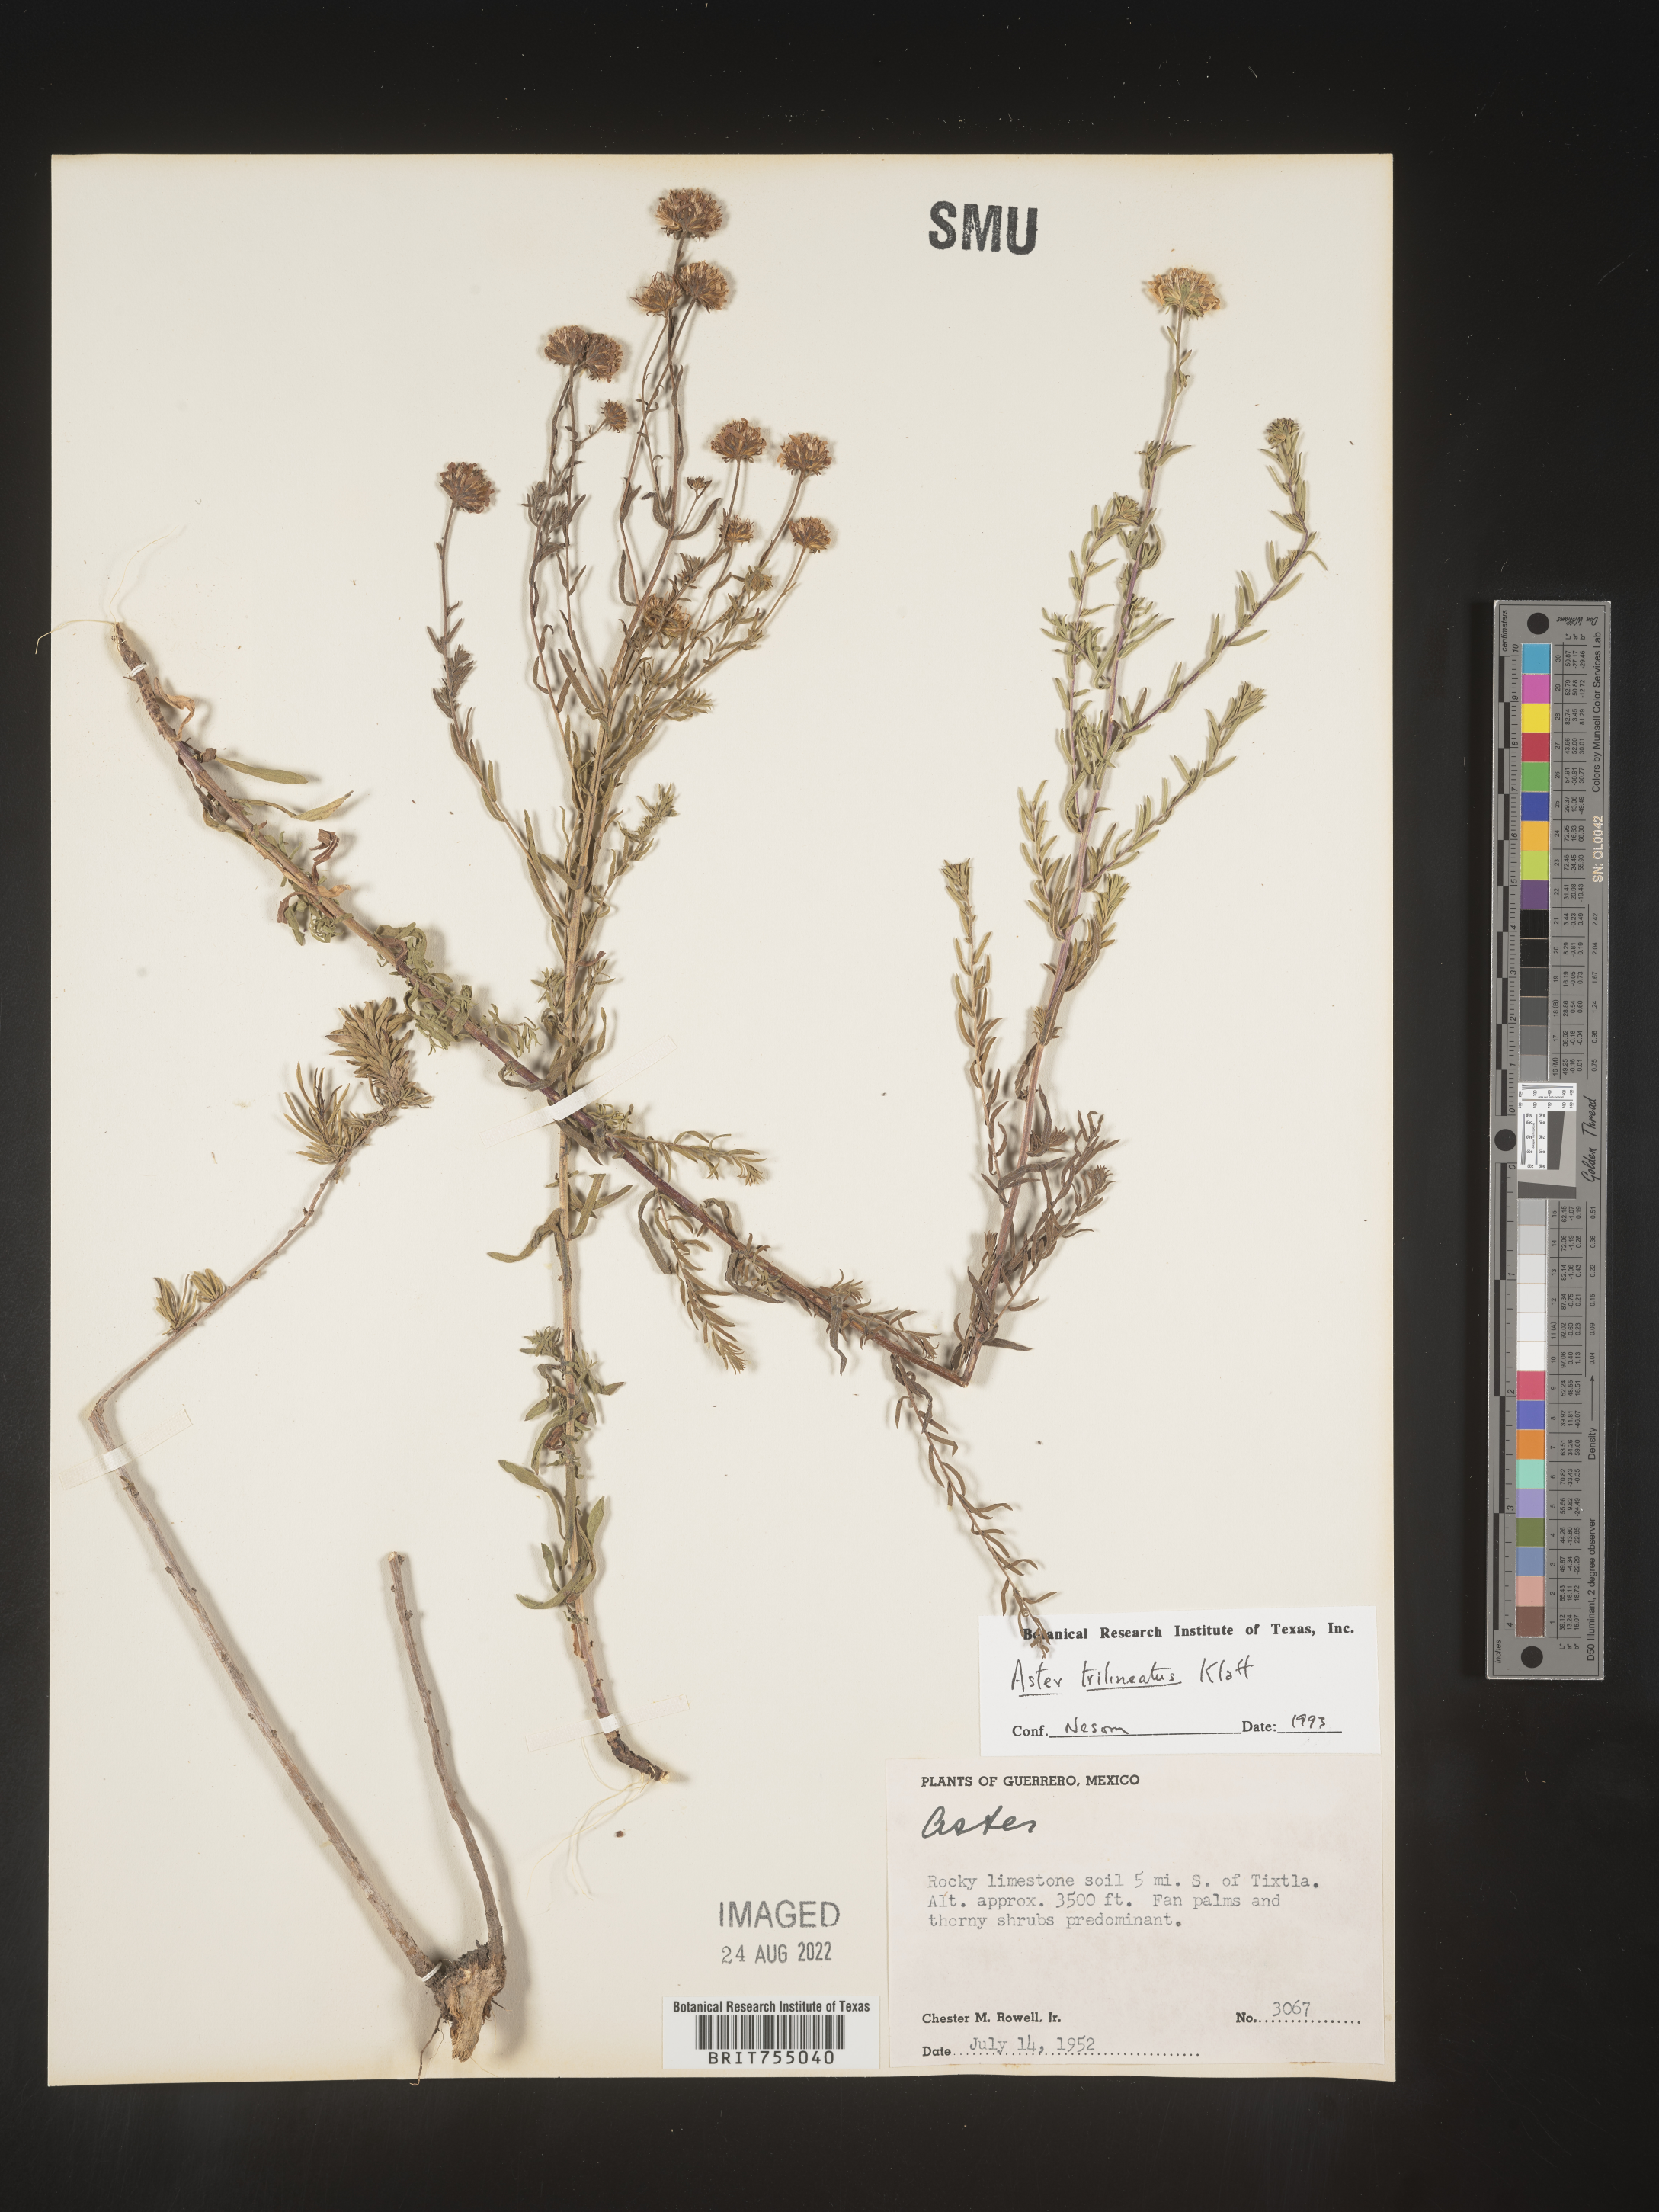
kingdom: Plantae
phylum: Tracheophyta
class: Magnoliopsida
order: Asterales
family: Asteraceae
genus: Symphyotrichum
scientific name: Symphyotrichum trilineatum
